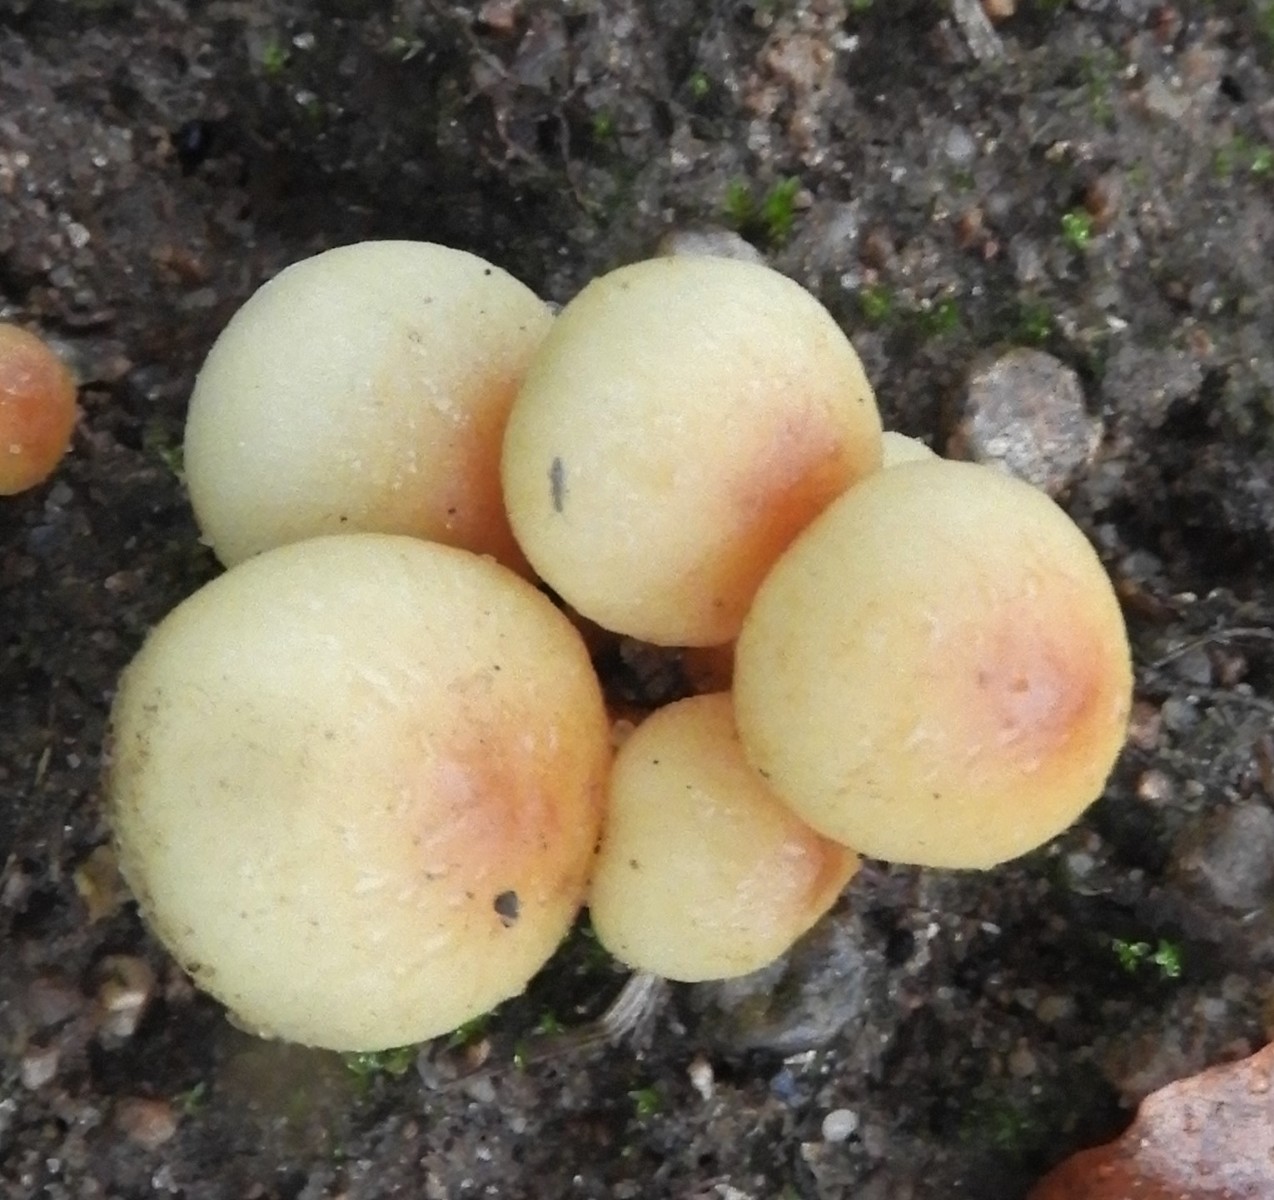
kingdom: Fungi
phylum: Basidiomycota
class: Agaricomycetes
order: Agaricales
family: Strophariaceae
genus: Hypholoma
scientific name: Hypholoma fasciculare
